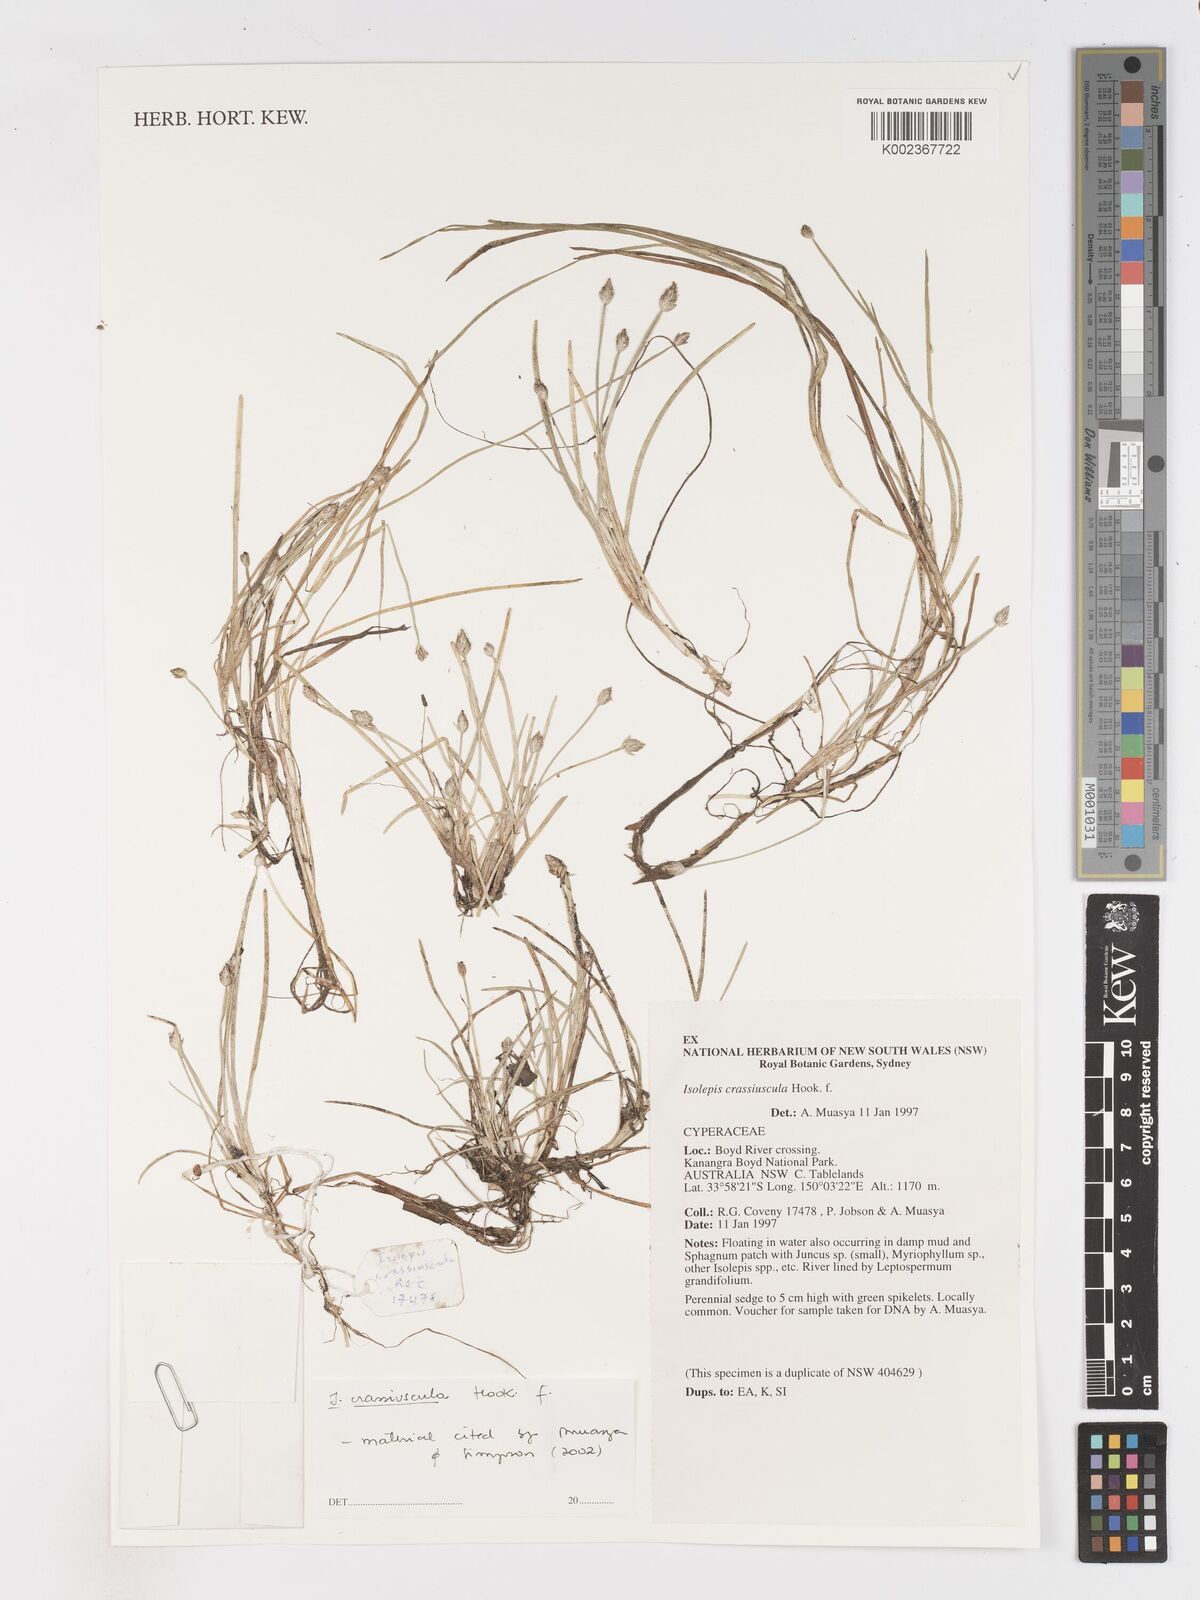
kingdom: Plantae
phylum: Tracheophyta
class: Liliopsida
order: Poales
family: Cyperaceae
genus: Isolepis
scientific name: Isolepis crassiuscula
